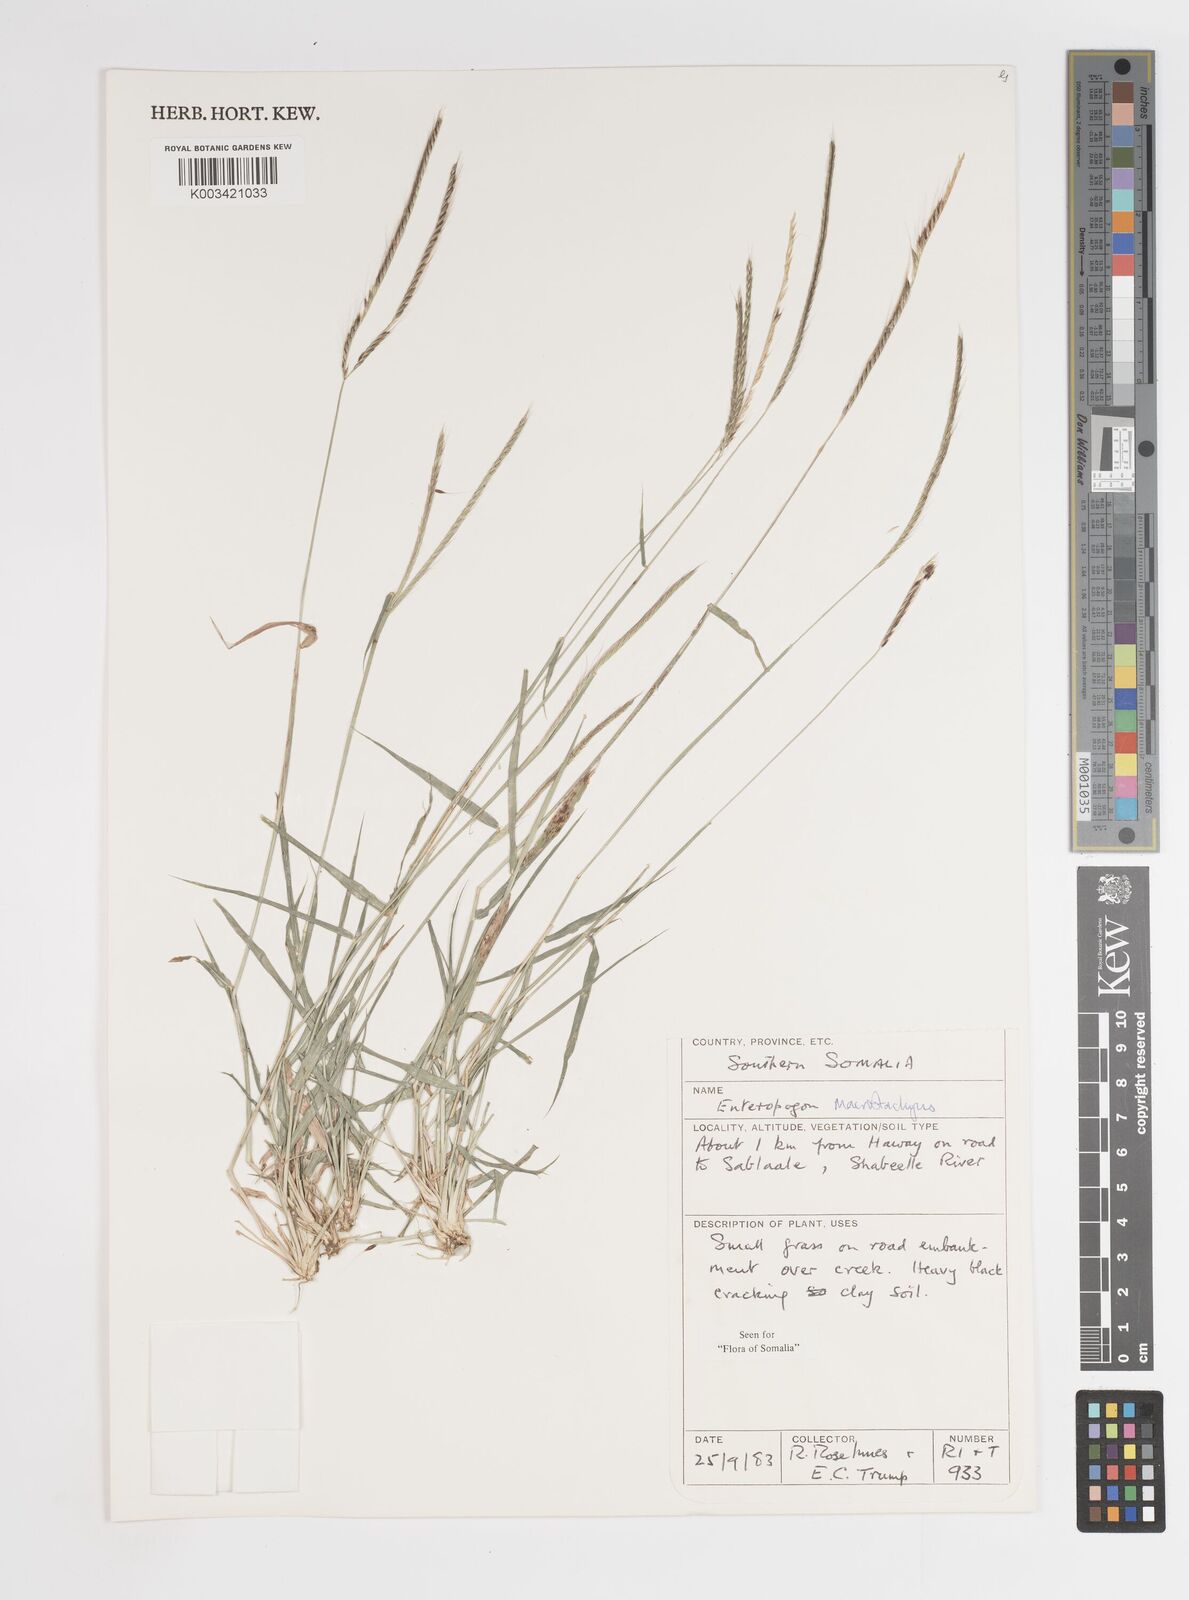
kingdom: Plantae
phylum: Tracheophyta
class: Liliopsida
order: Poales
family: Poaceae
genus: Enteropogon
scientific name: Enteropogon macrostachyus
